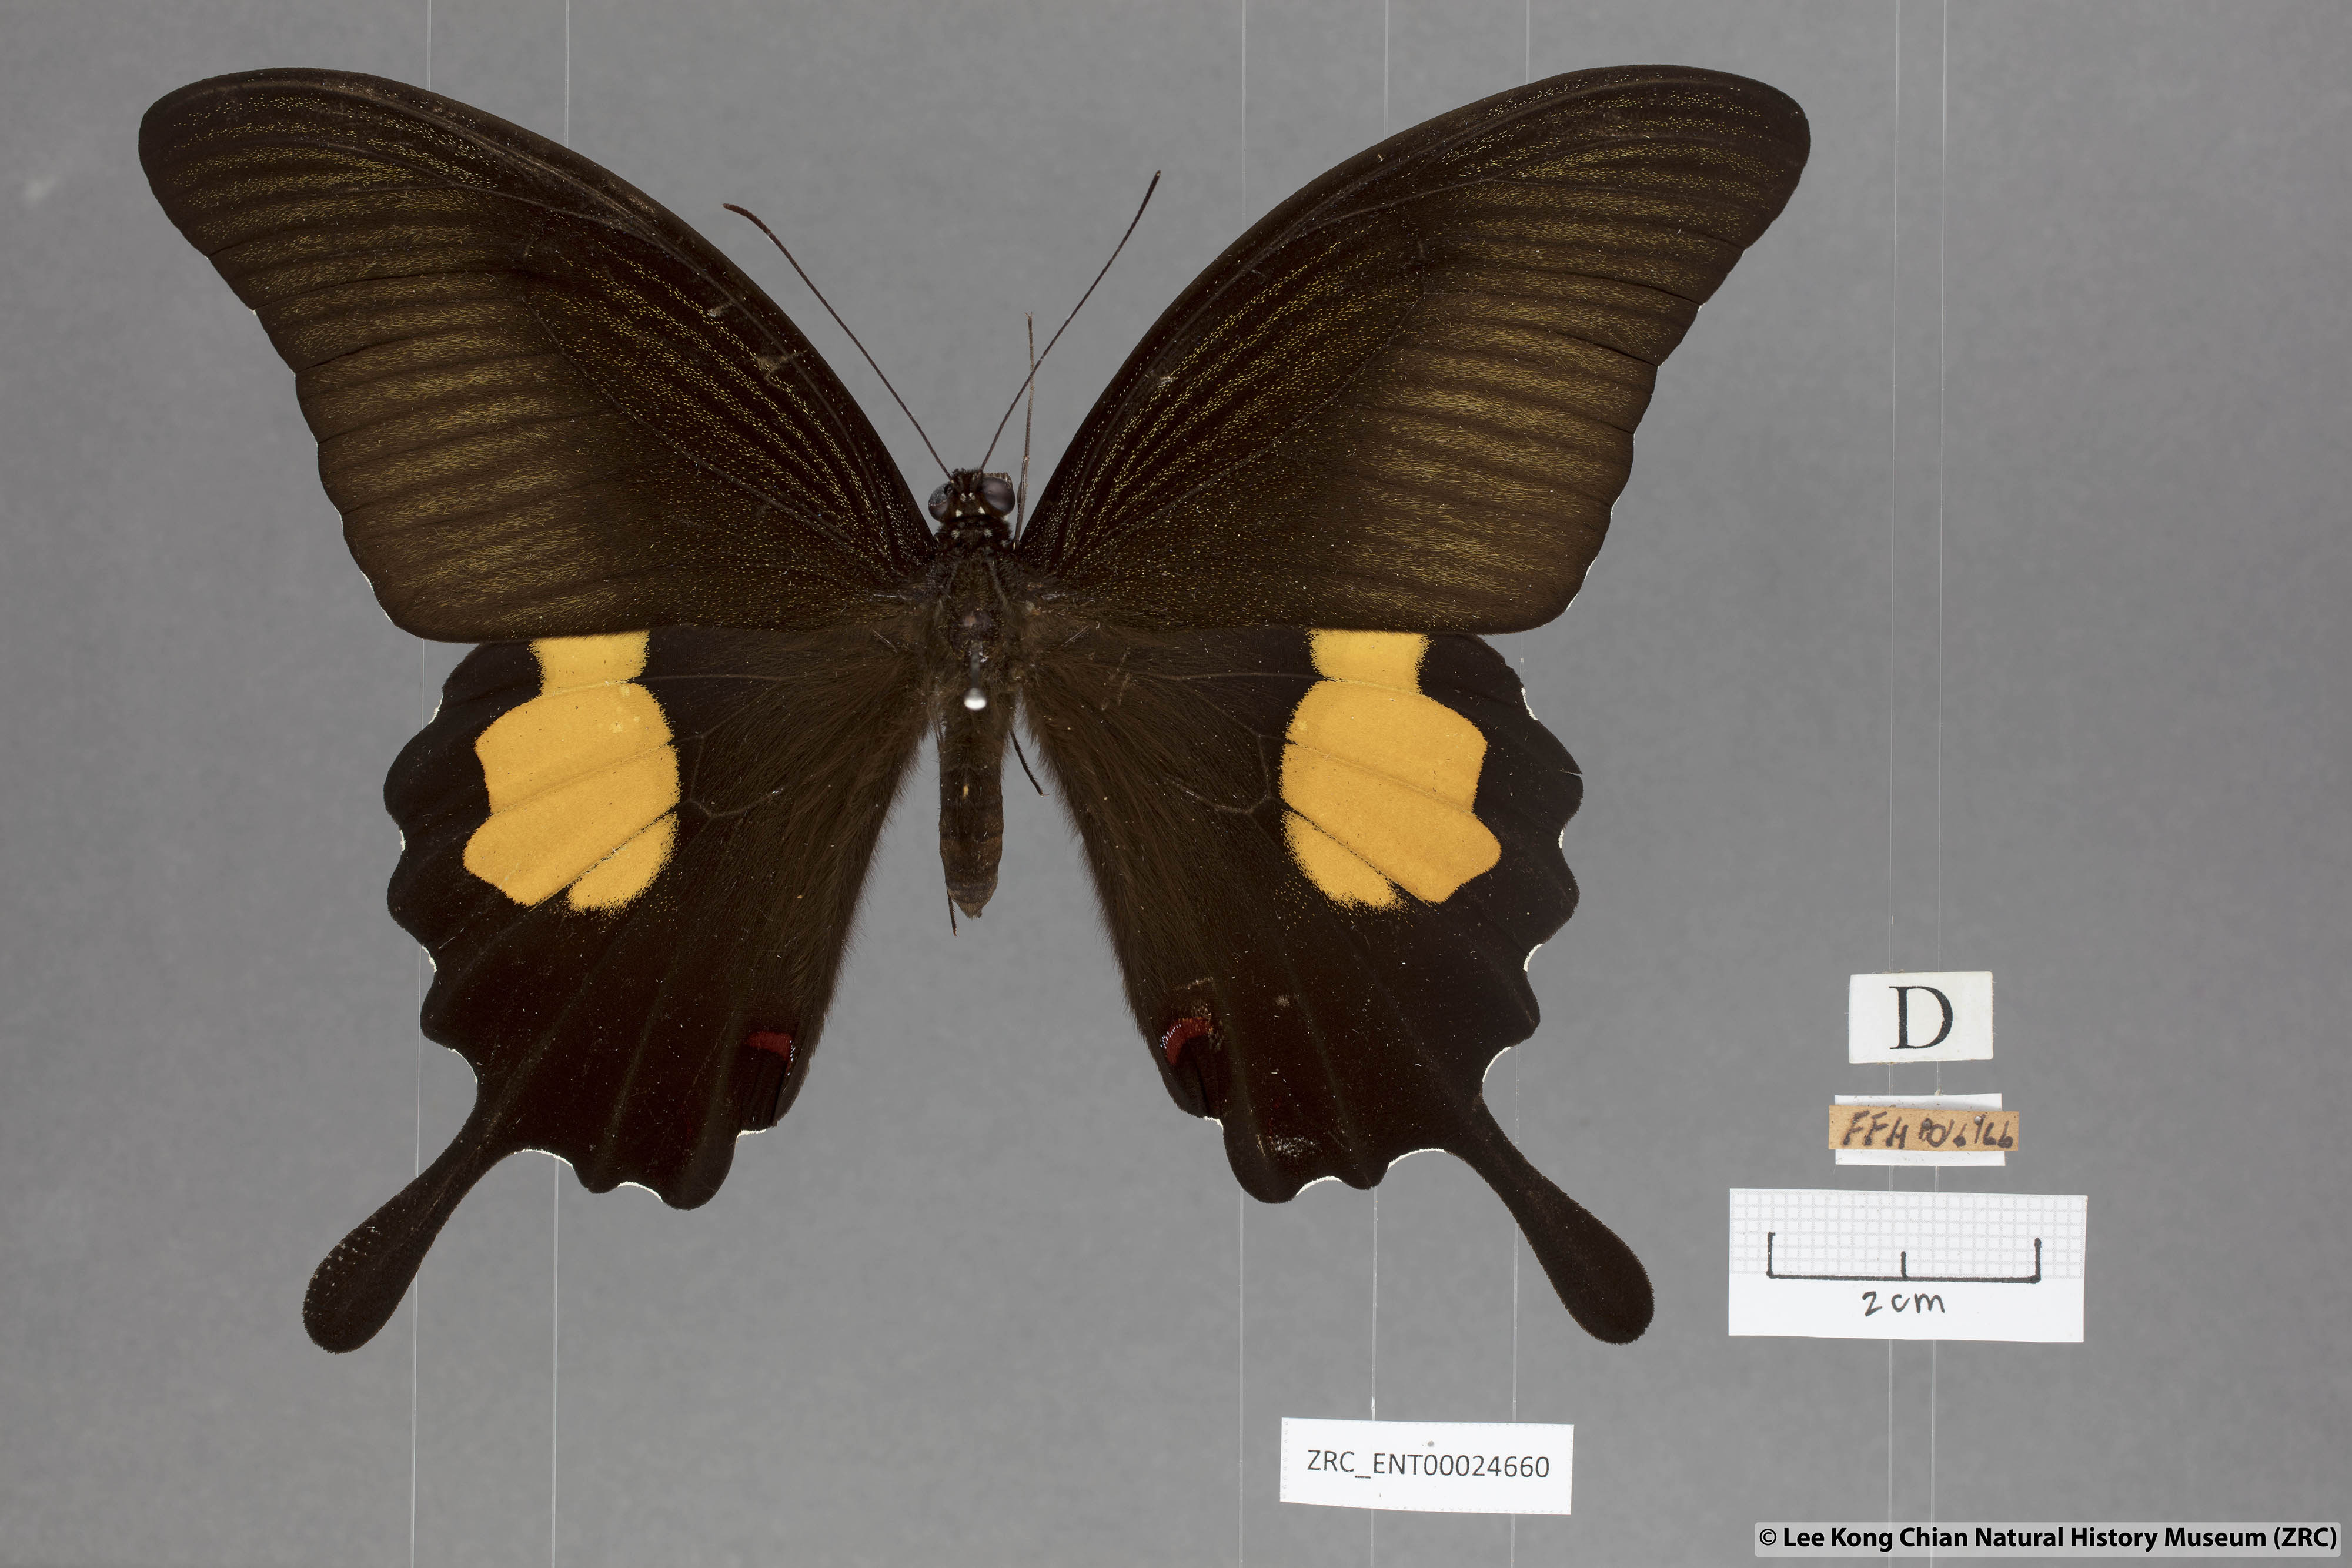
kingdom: Animalia
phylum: Arthropoda
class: Insecta
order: Lepidoptera
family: Papilionidae
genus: Papilio
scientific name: Papilio iswara
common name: Great helen swallowtail
